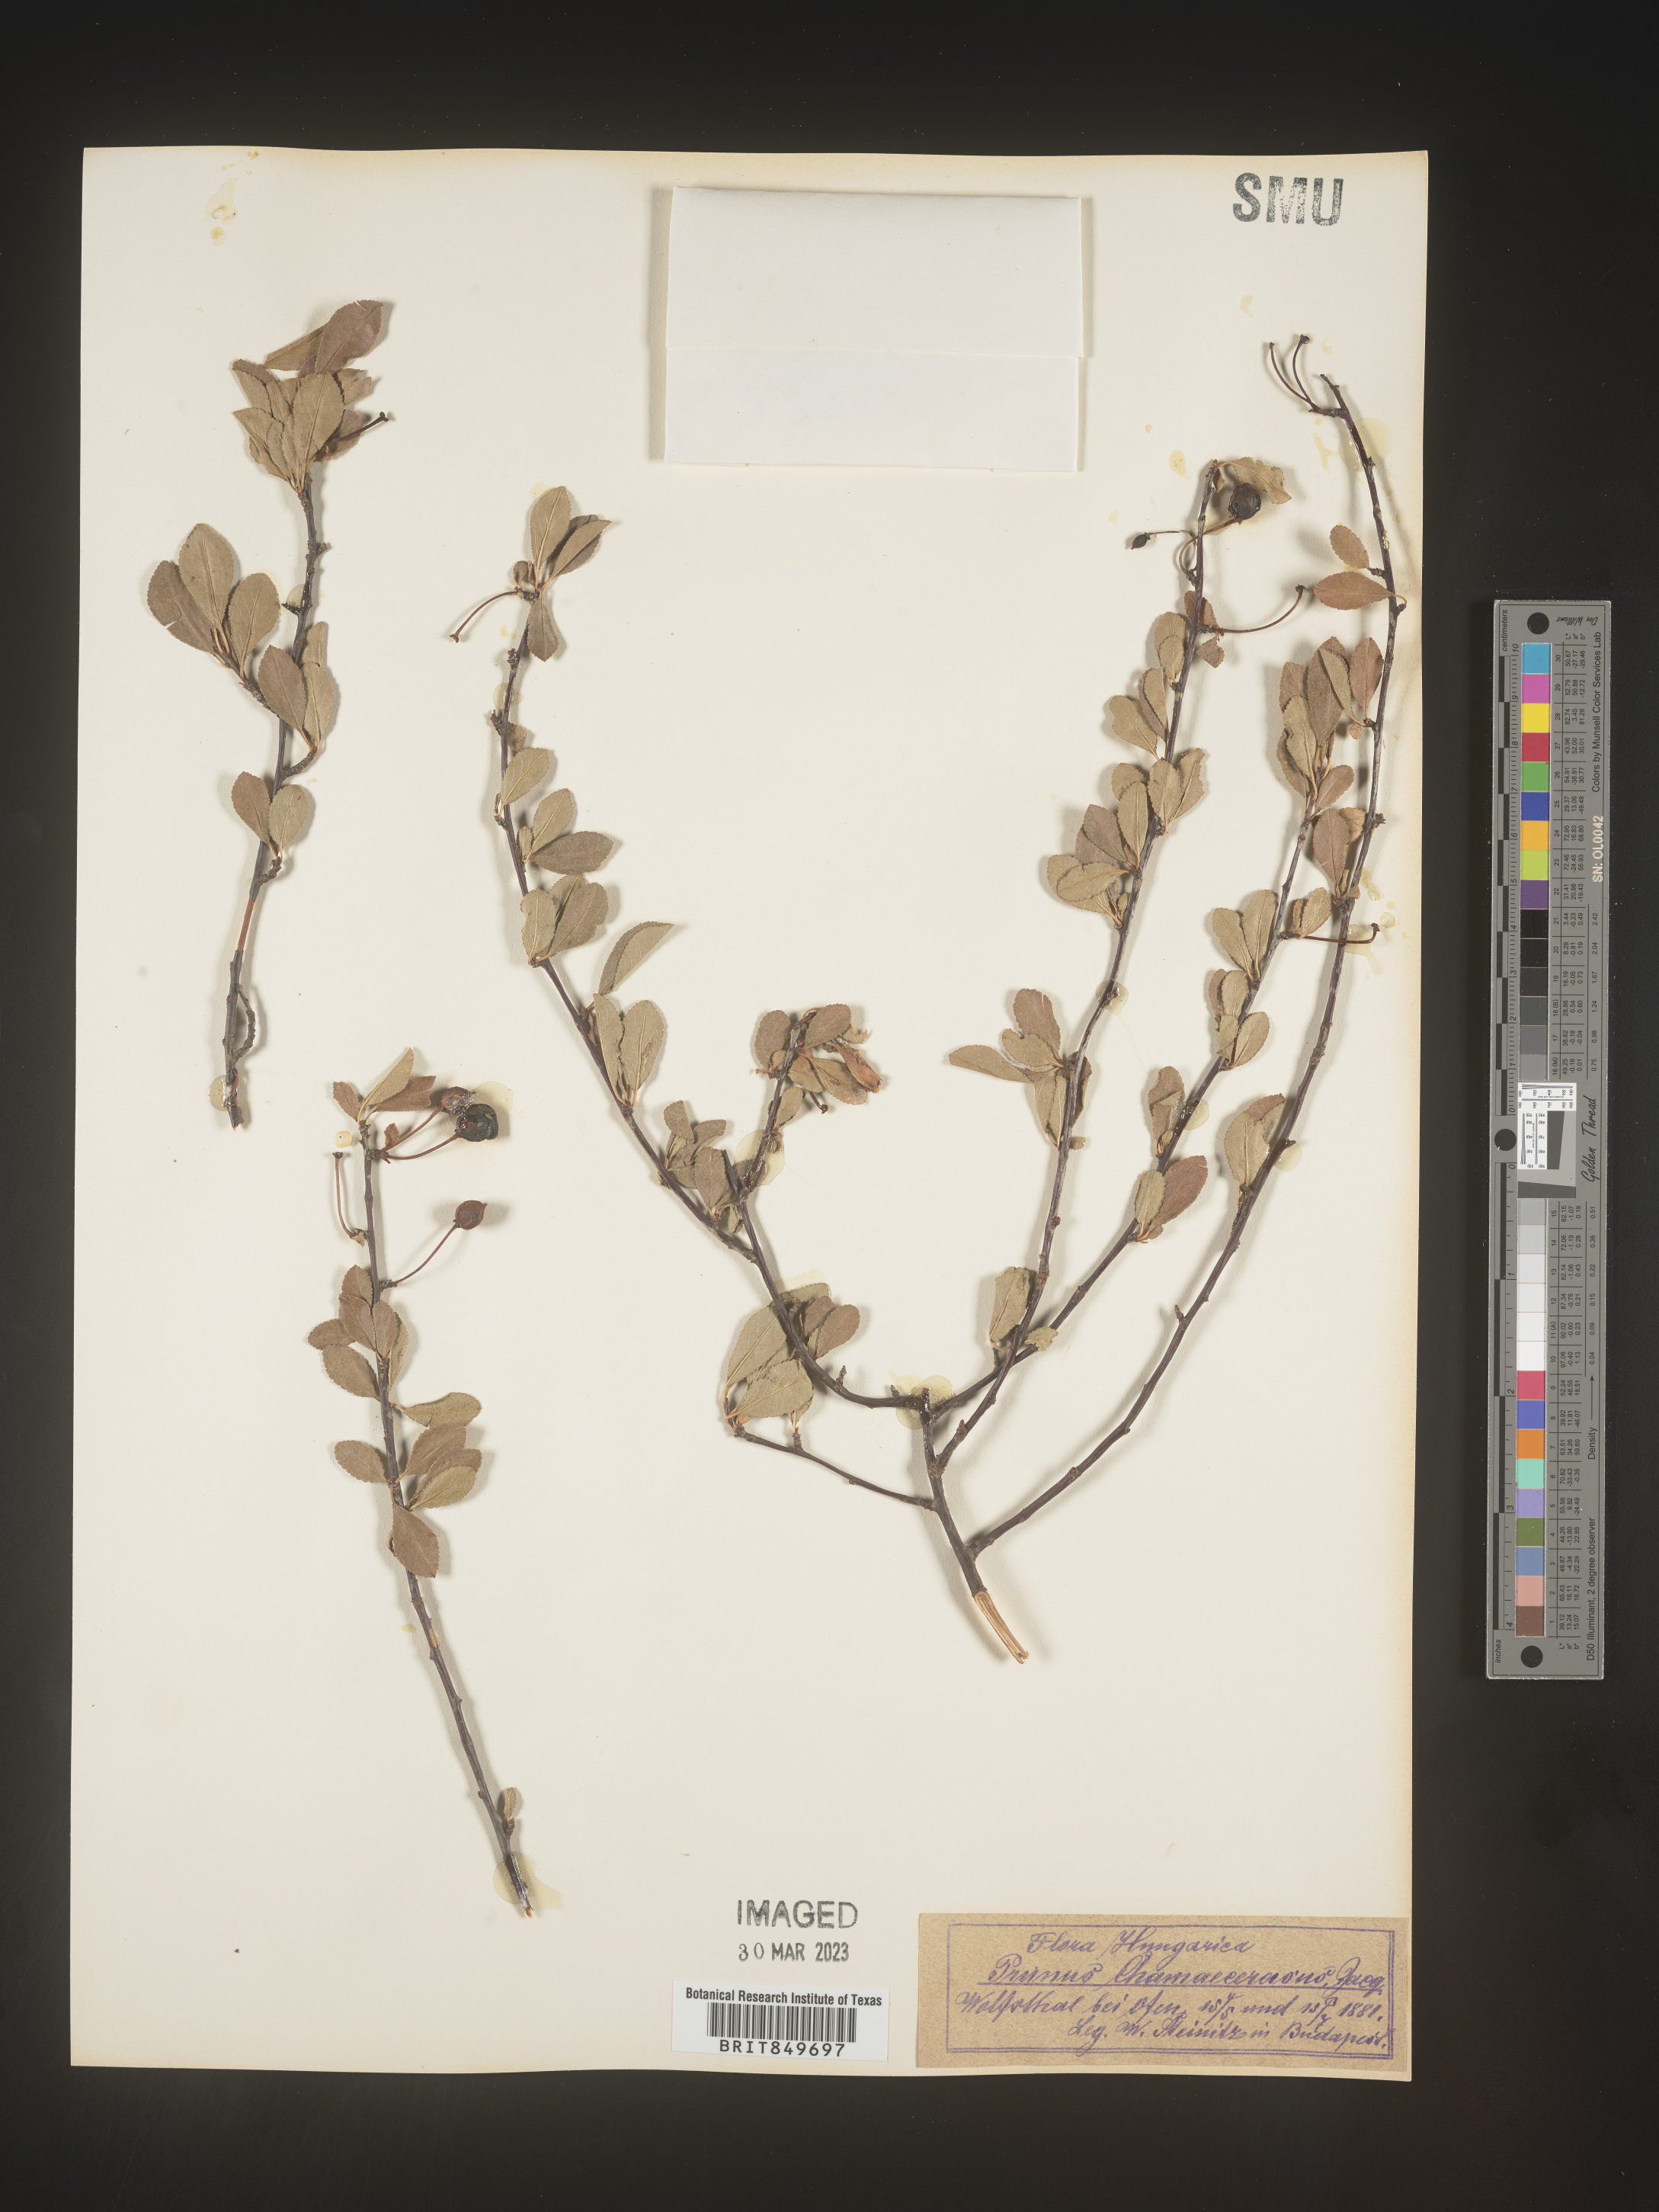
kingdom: Plantae
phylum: Tracheophyta
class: Magnoliopsida
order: Rosales
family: Rosaceae
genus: Prunus
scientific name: Prunus
